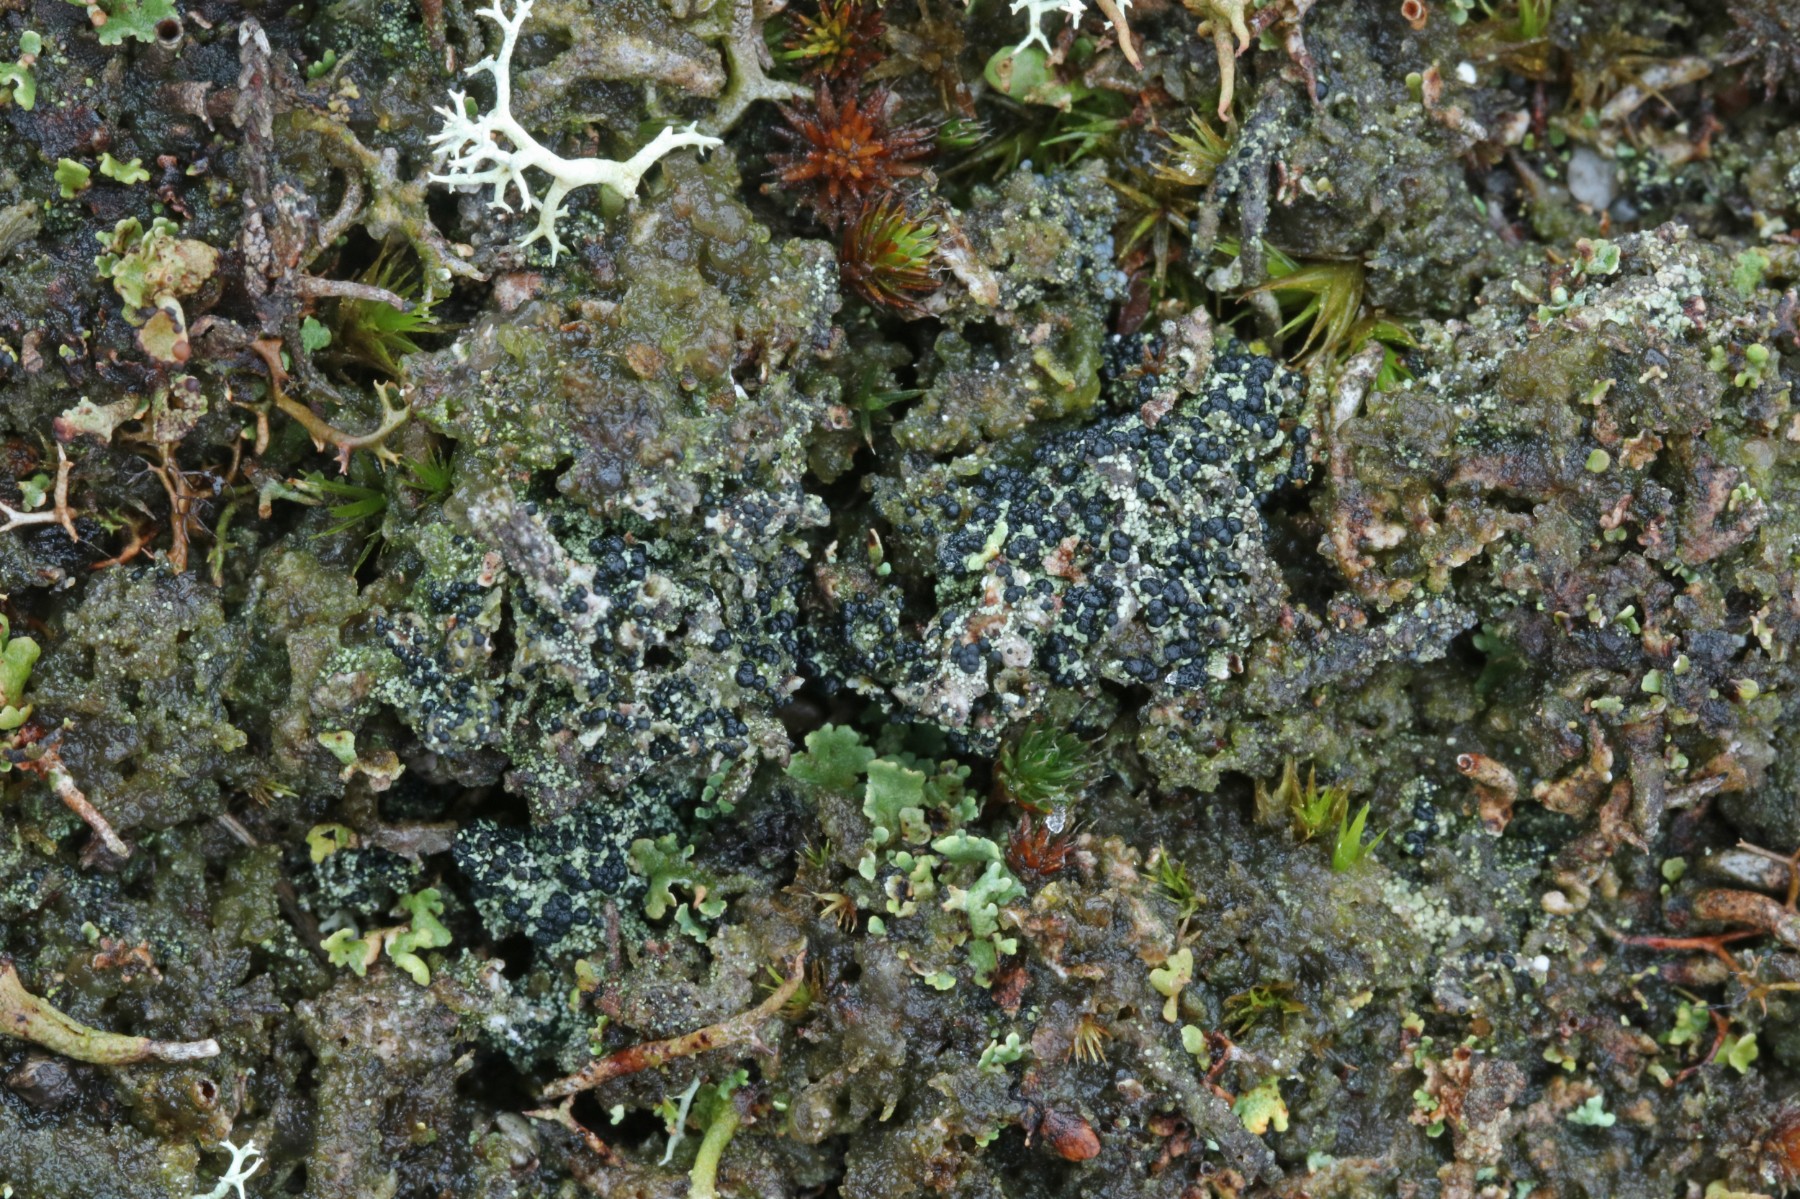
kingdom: Fungi
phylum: Ascomycota
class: Lecanoromycetes
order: Lecanorales
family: Byssolomataceae
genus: Micarea
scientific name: Micarea lignaria
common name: tørve-knaplav
